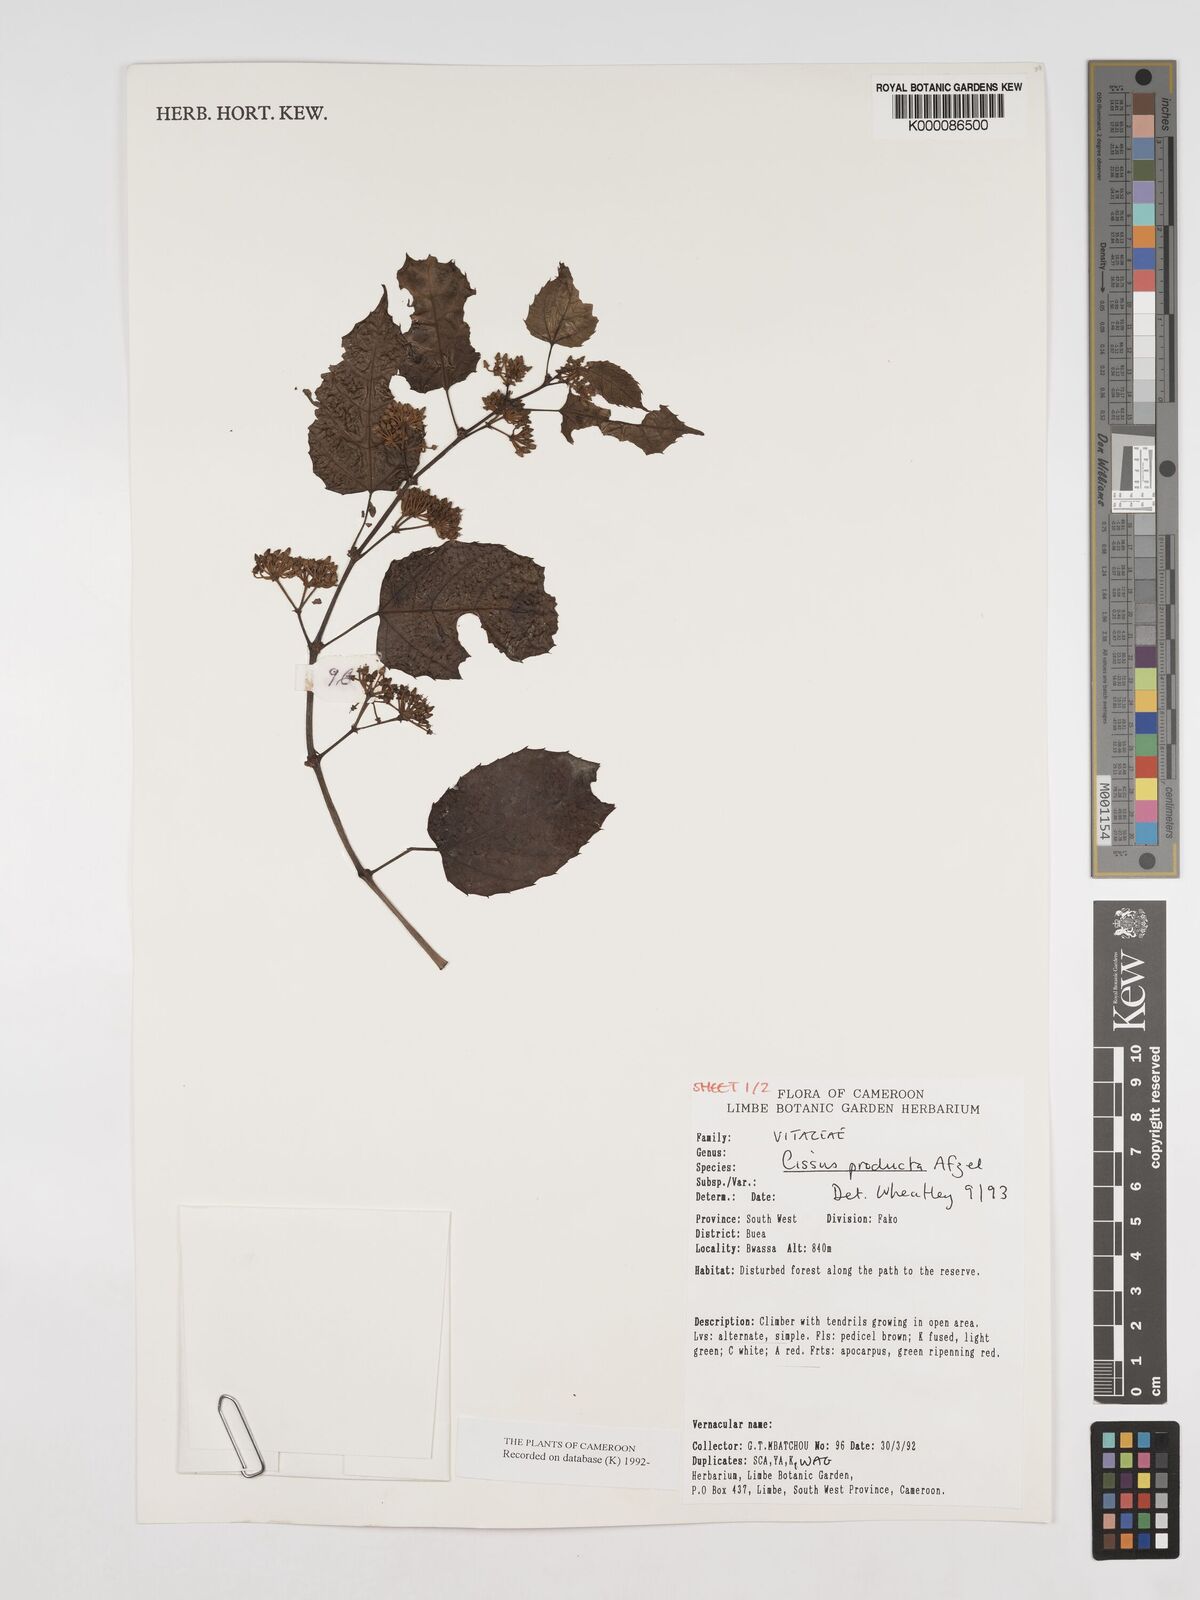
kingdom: Plantae
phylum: Tracheophyta
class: Magnoliopsida
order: Vitales
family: Vitaceae
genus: Cissus
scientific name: Cissus producta
